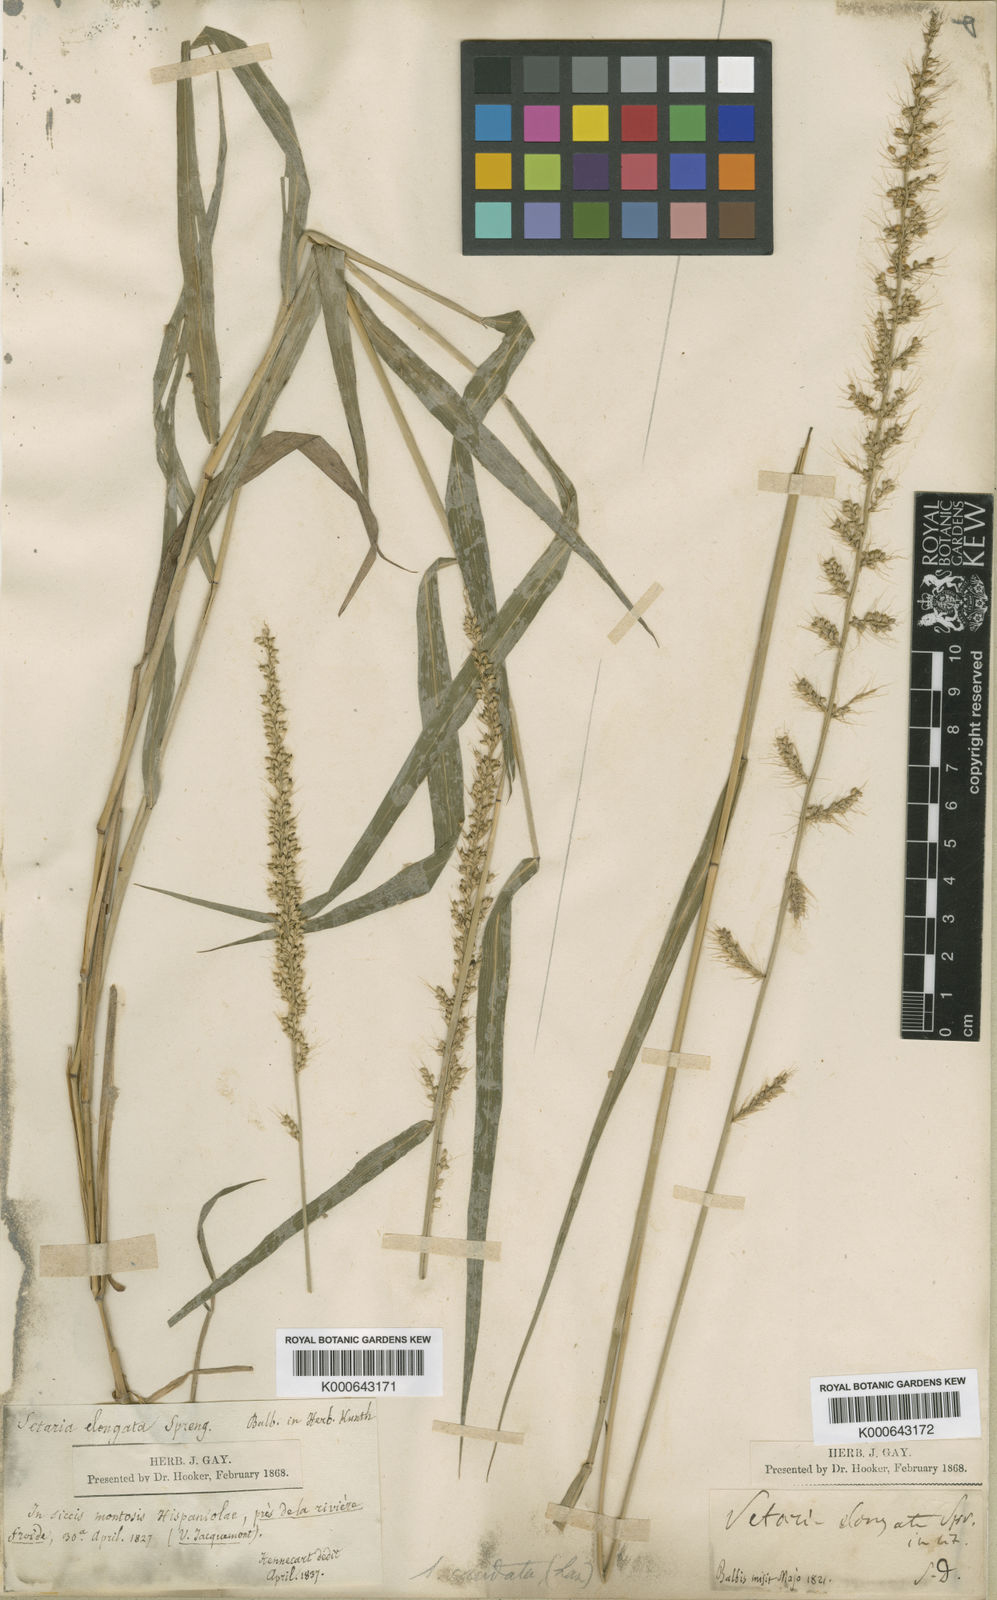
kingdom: Plantae
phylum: Tracheophyta
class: Liliopsida
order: Poales
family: Poaceae
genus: Setaria
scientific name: Setaria setosa
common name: West indies bristle grass
